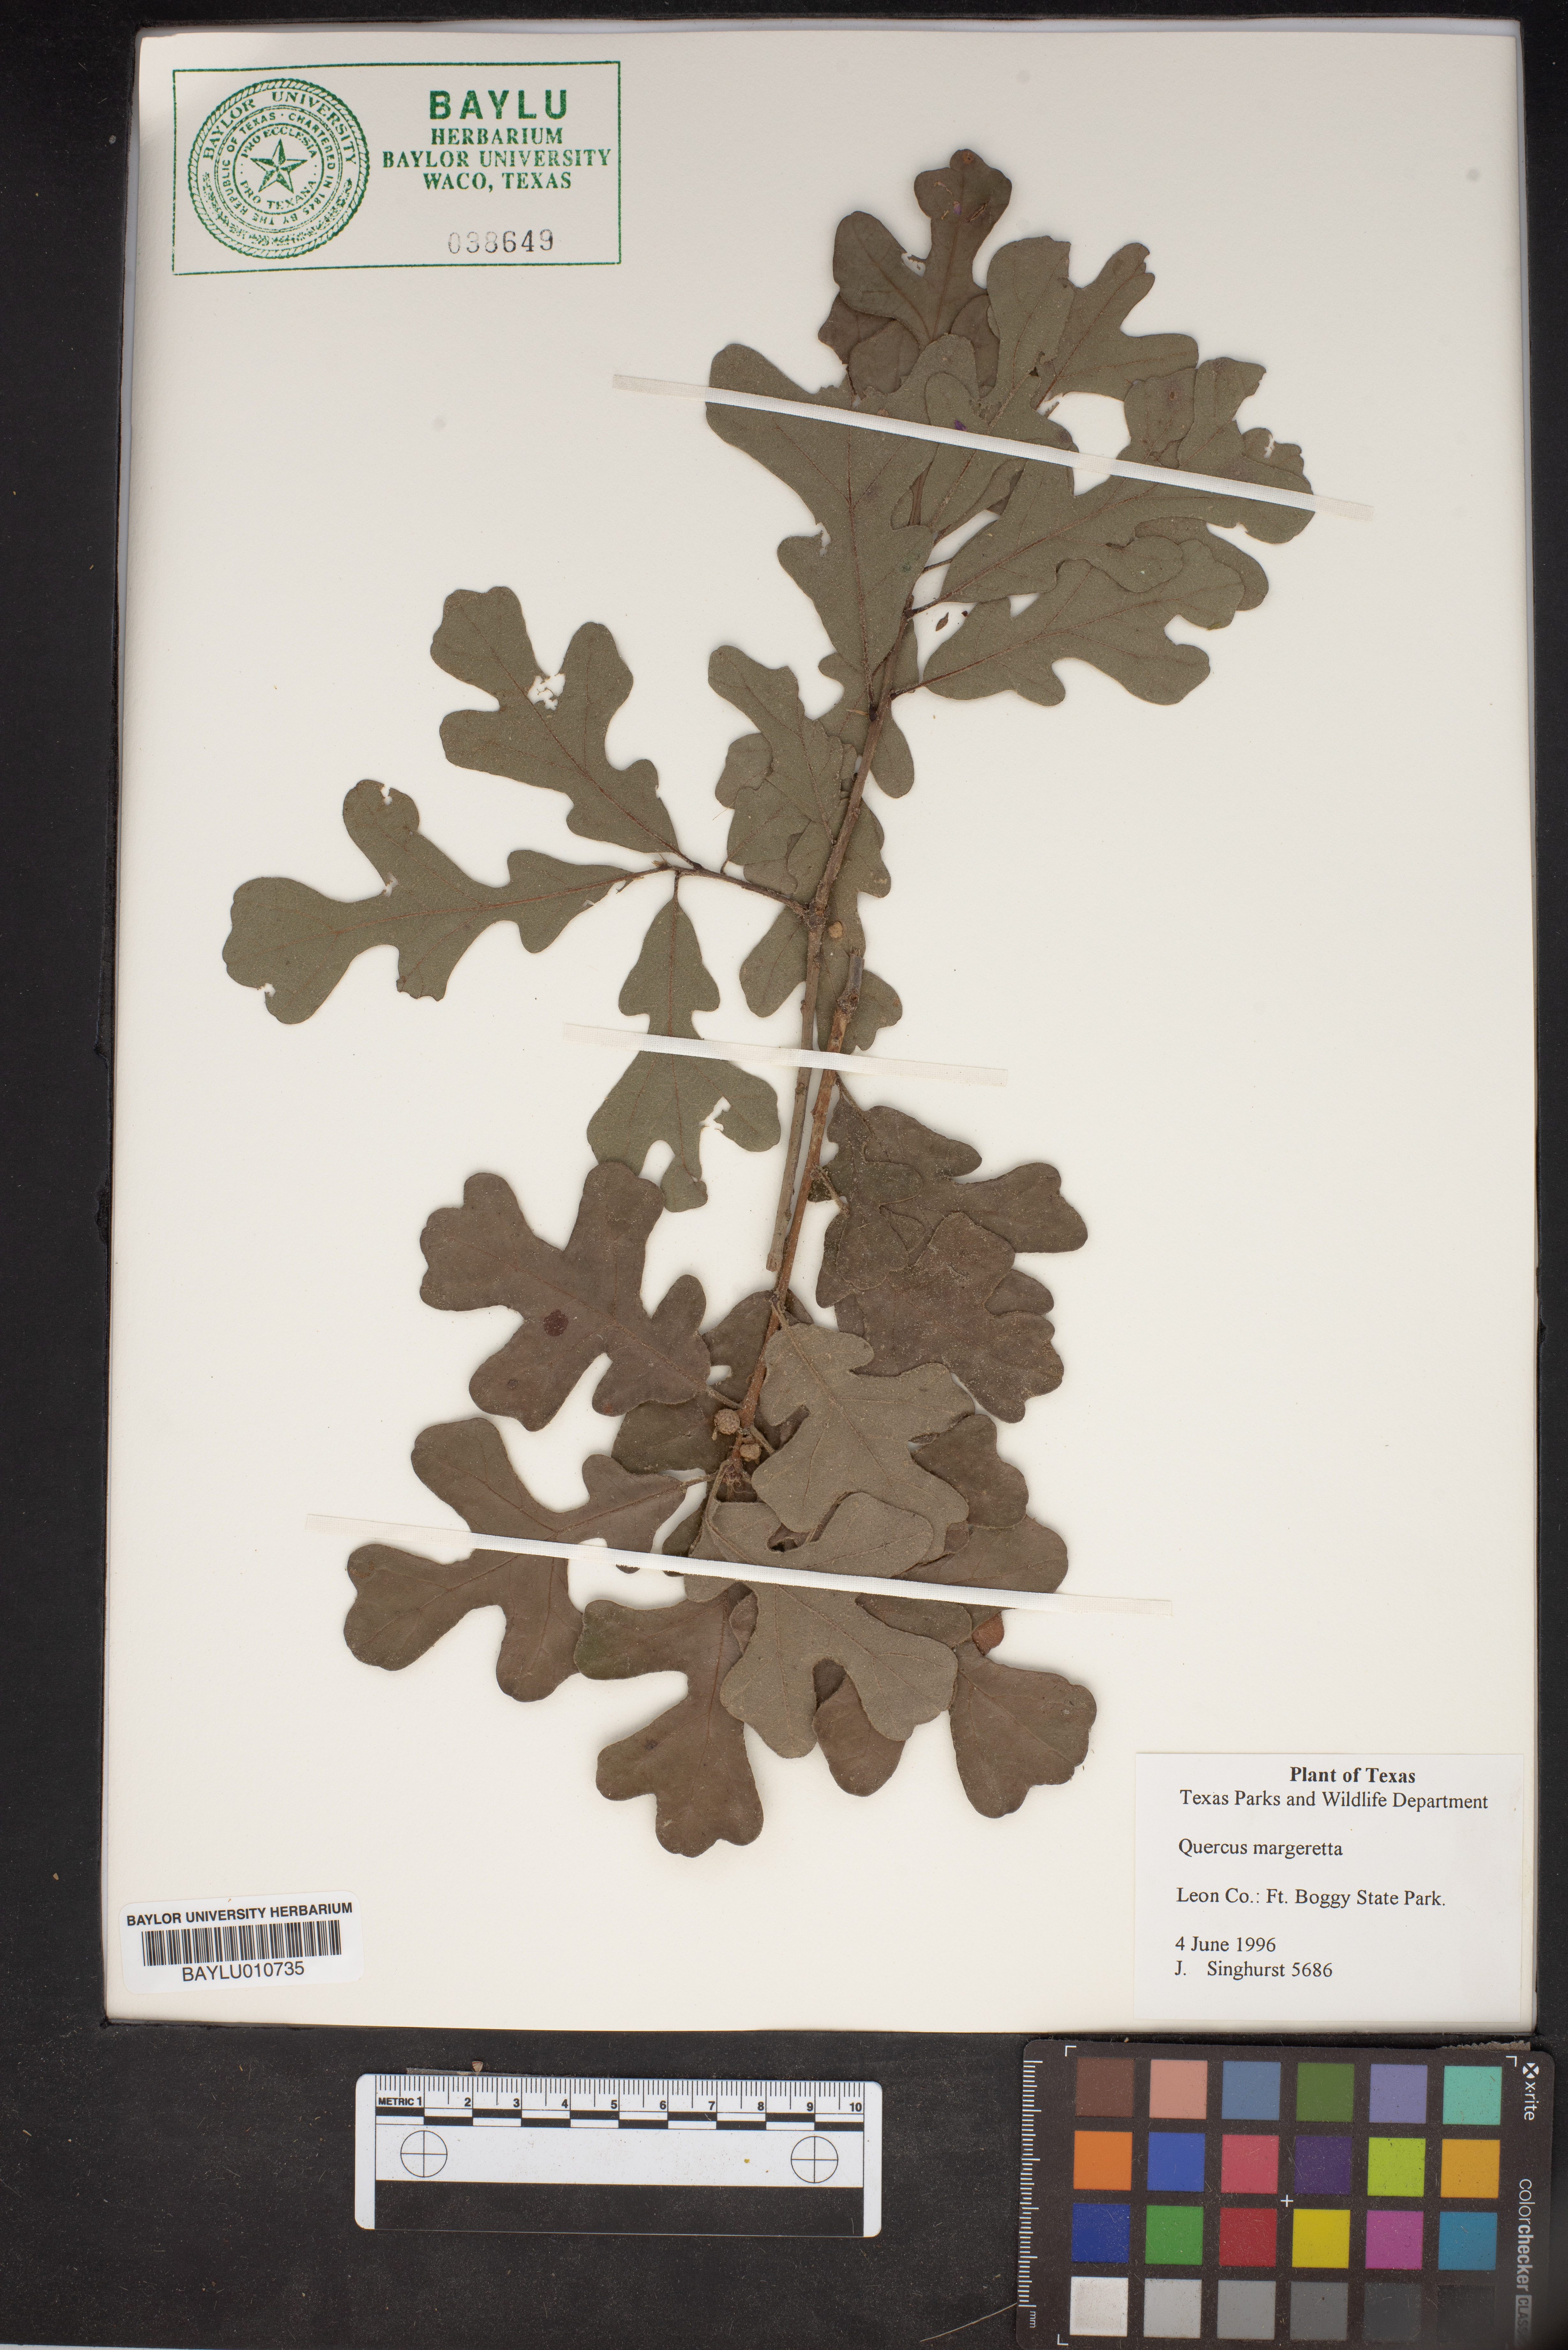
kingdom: Plantae
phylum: Tracheophyta
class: Magnoliopsida
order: Fagales
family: Fagaceae
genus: Quercus
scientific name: Quercus margaretta
